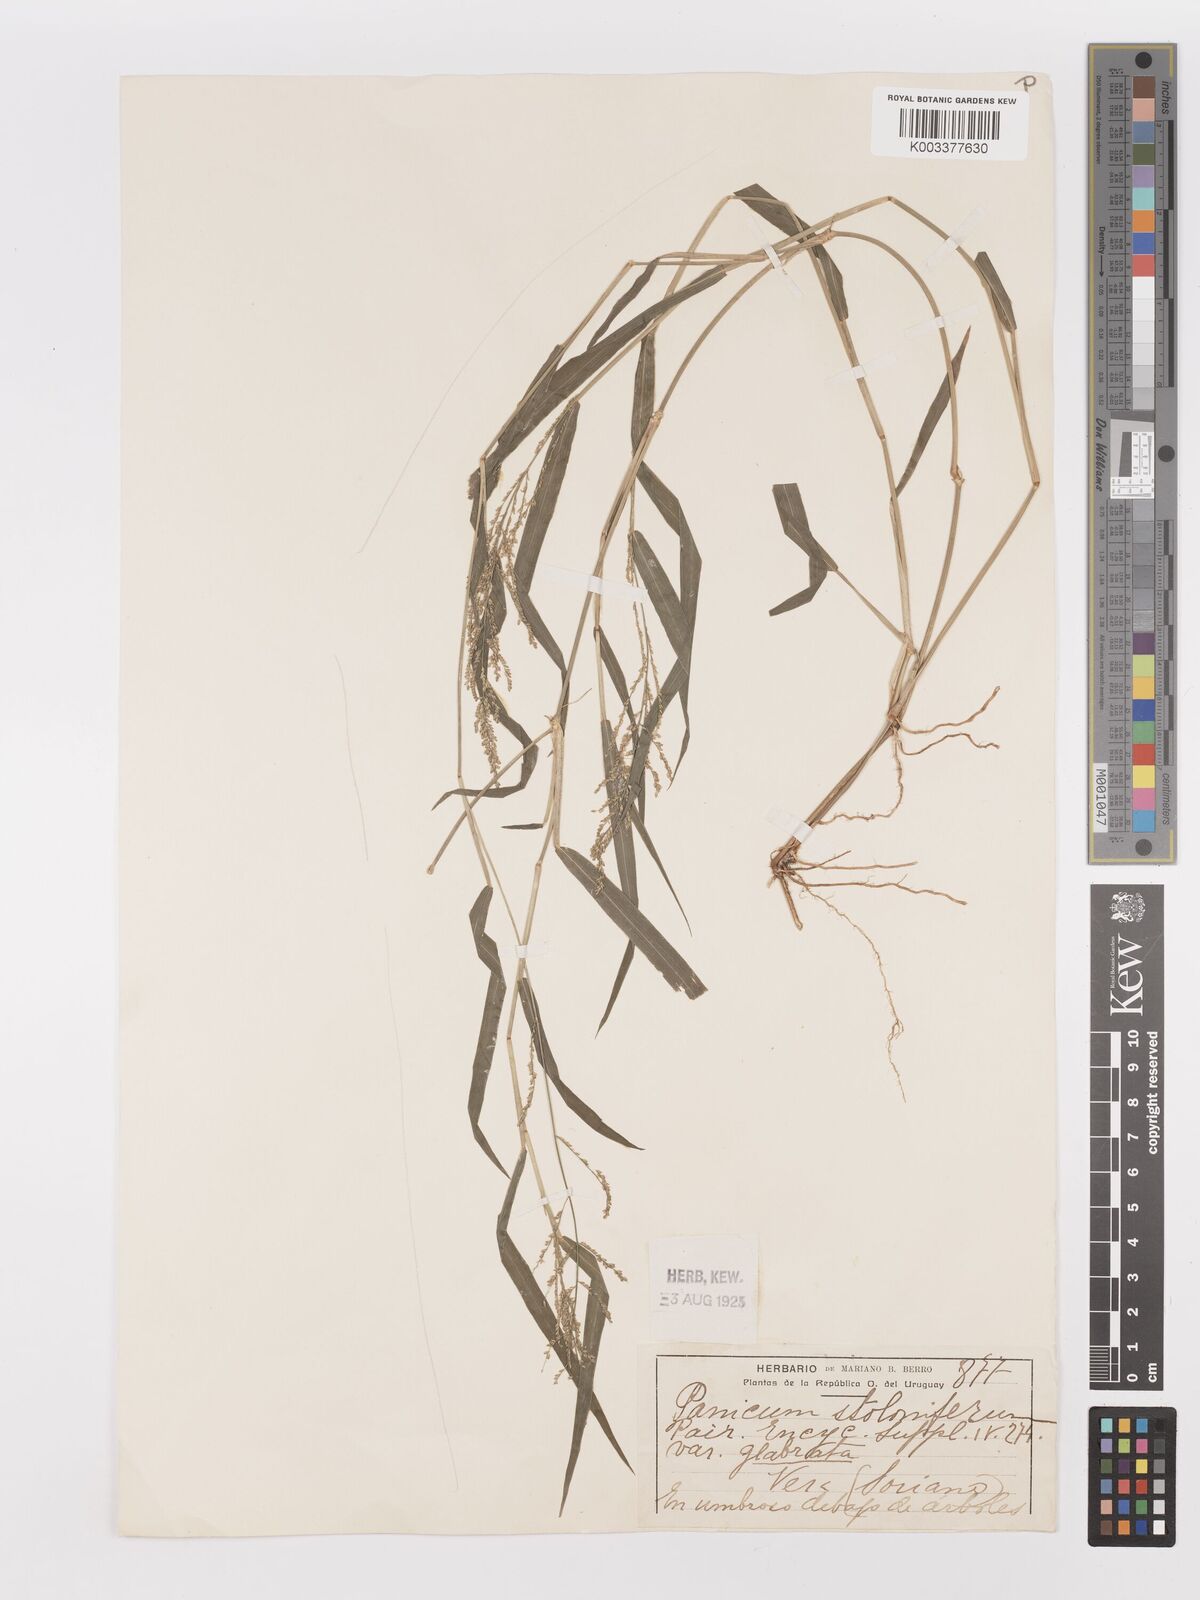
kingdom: Plantae
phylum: Tracheophyta
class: Liliopsida
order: Poales
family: Poaceae
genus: Steinchisma
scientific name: Steinchisma laxum
